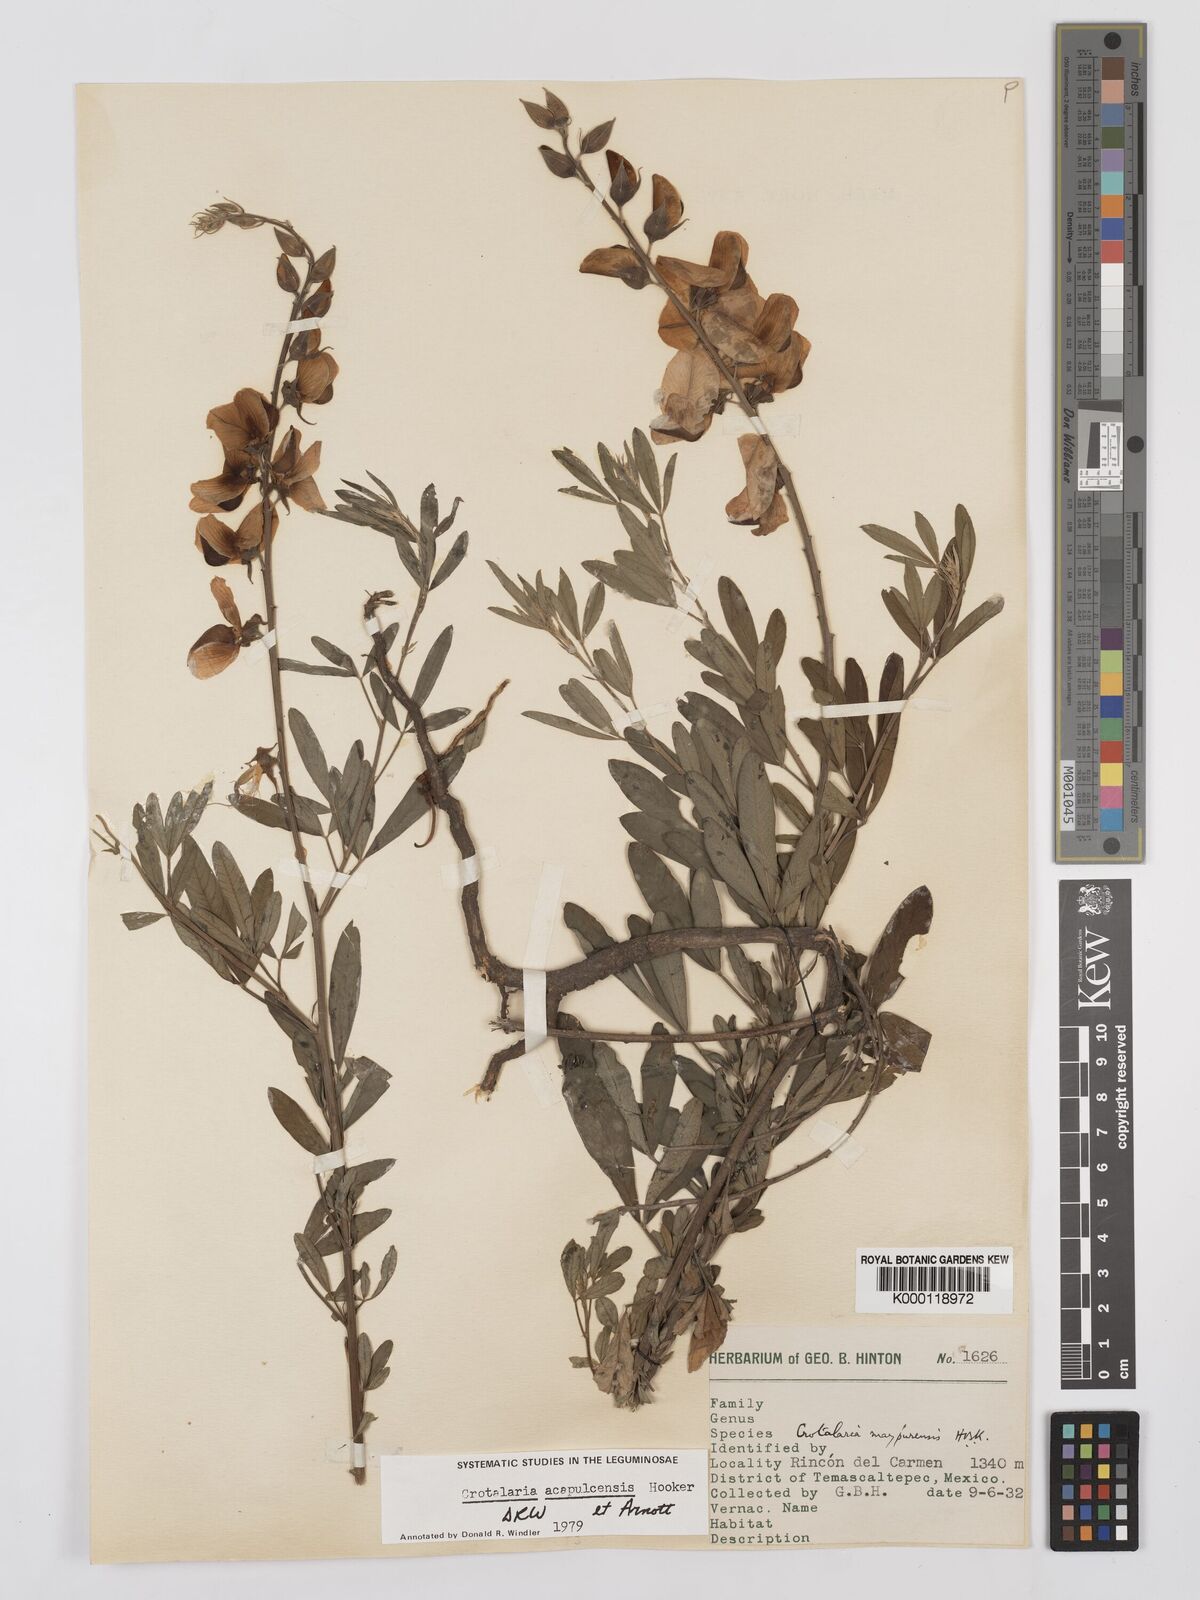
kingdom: Plantae
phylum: Tracheophyta
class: Magnoliopsida
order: Fabales
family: Fabaceae
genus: Crotalaria
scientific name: Crotalaria maypurensis
